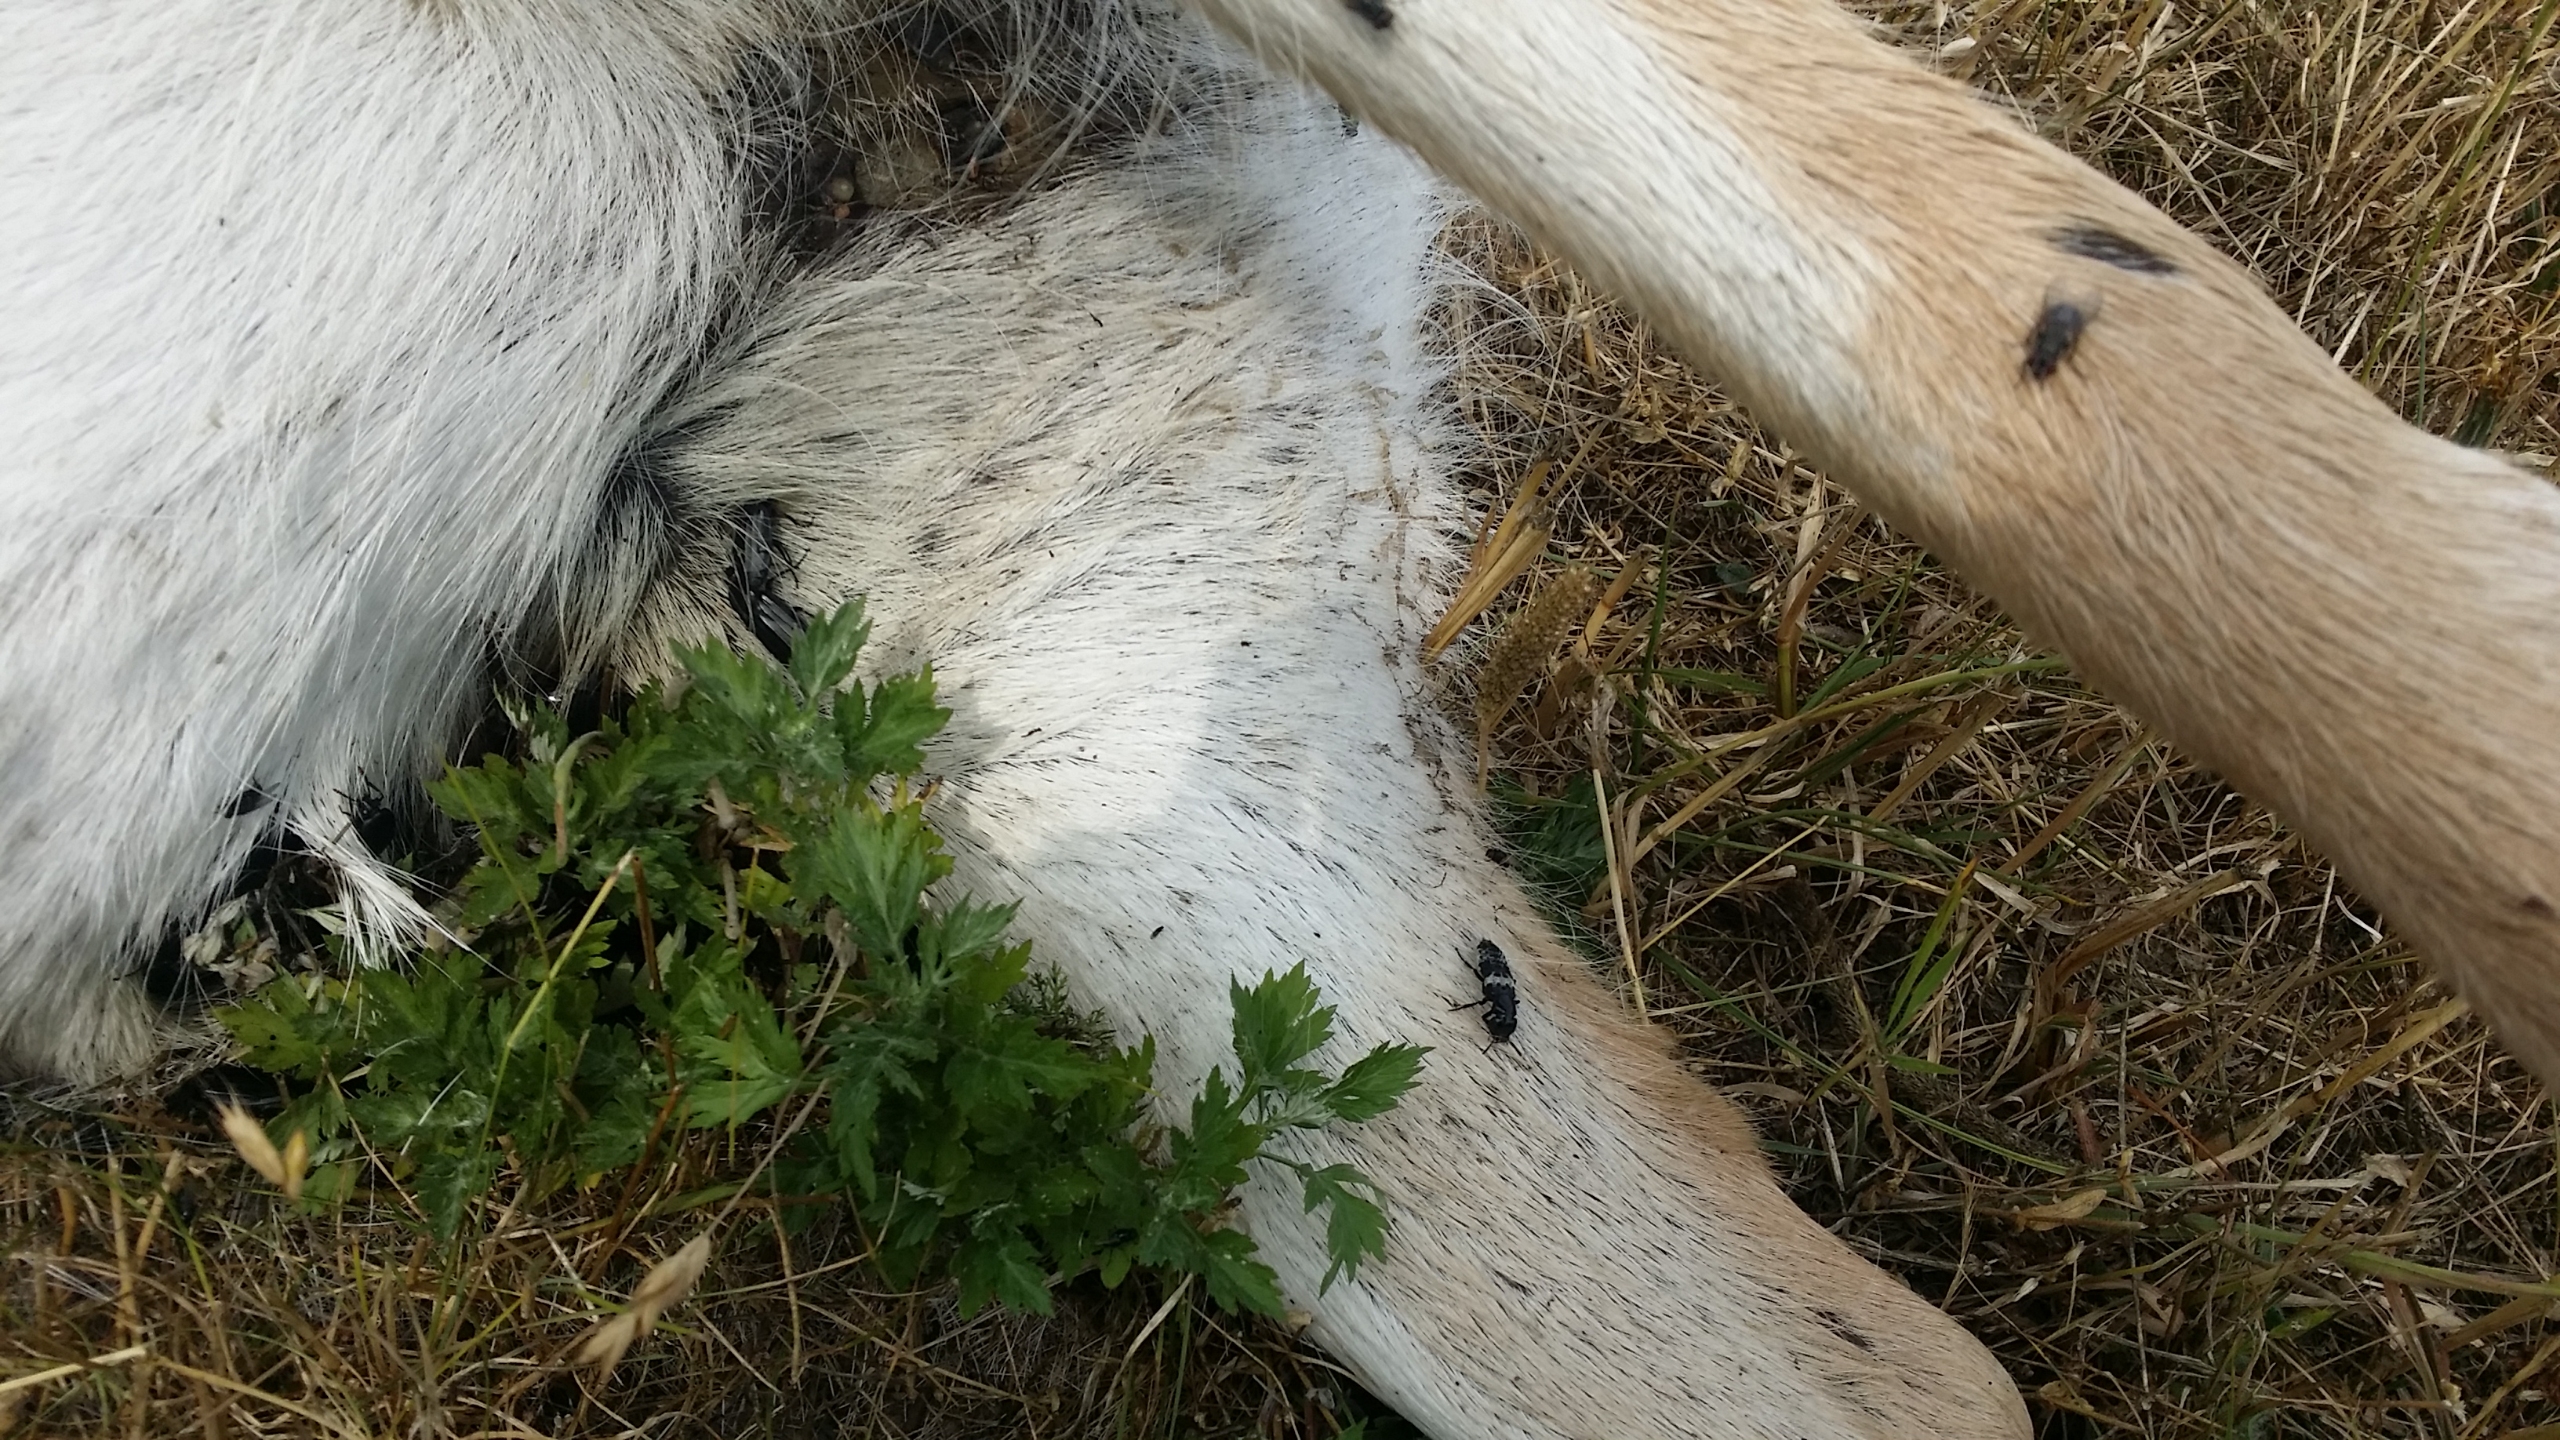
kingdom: Animalia
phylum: Arthropoda
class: Insecta
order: Coleoptera
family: Staphylinidae
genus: Creophilus
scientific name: Creophilus maxillosus
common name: Skrækrovbille
